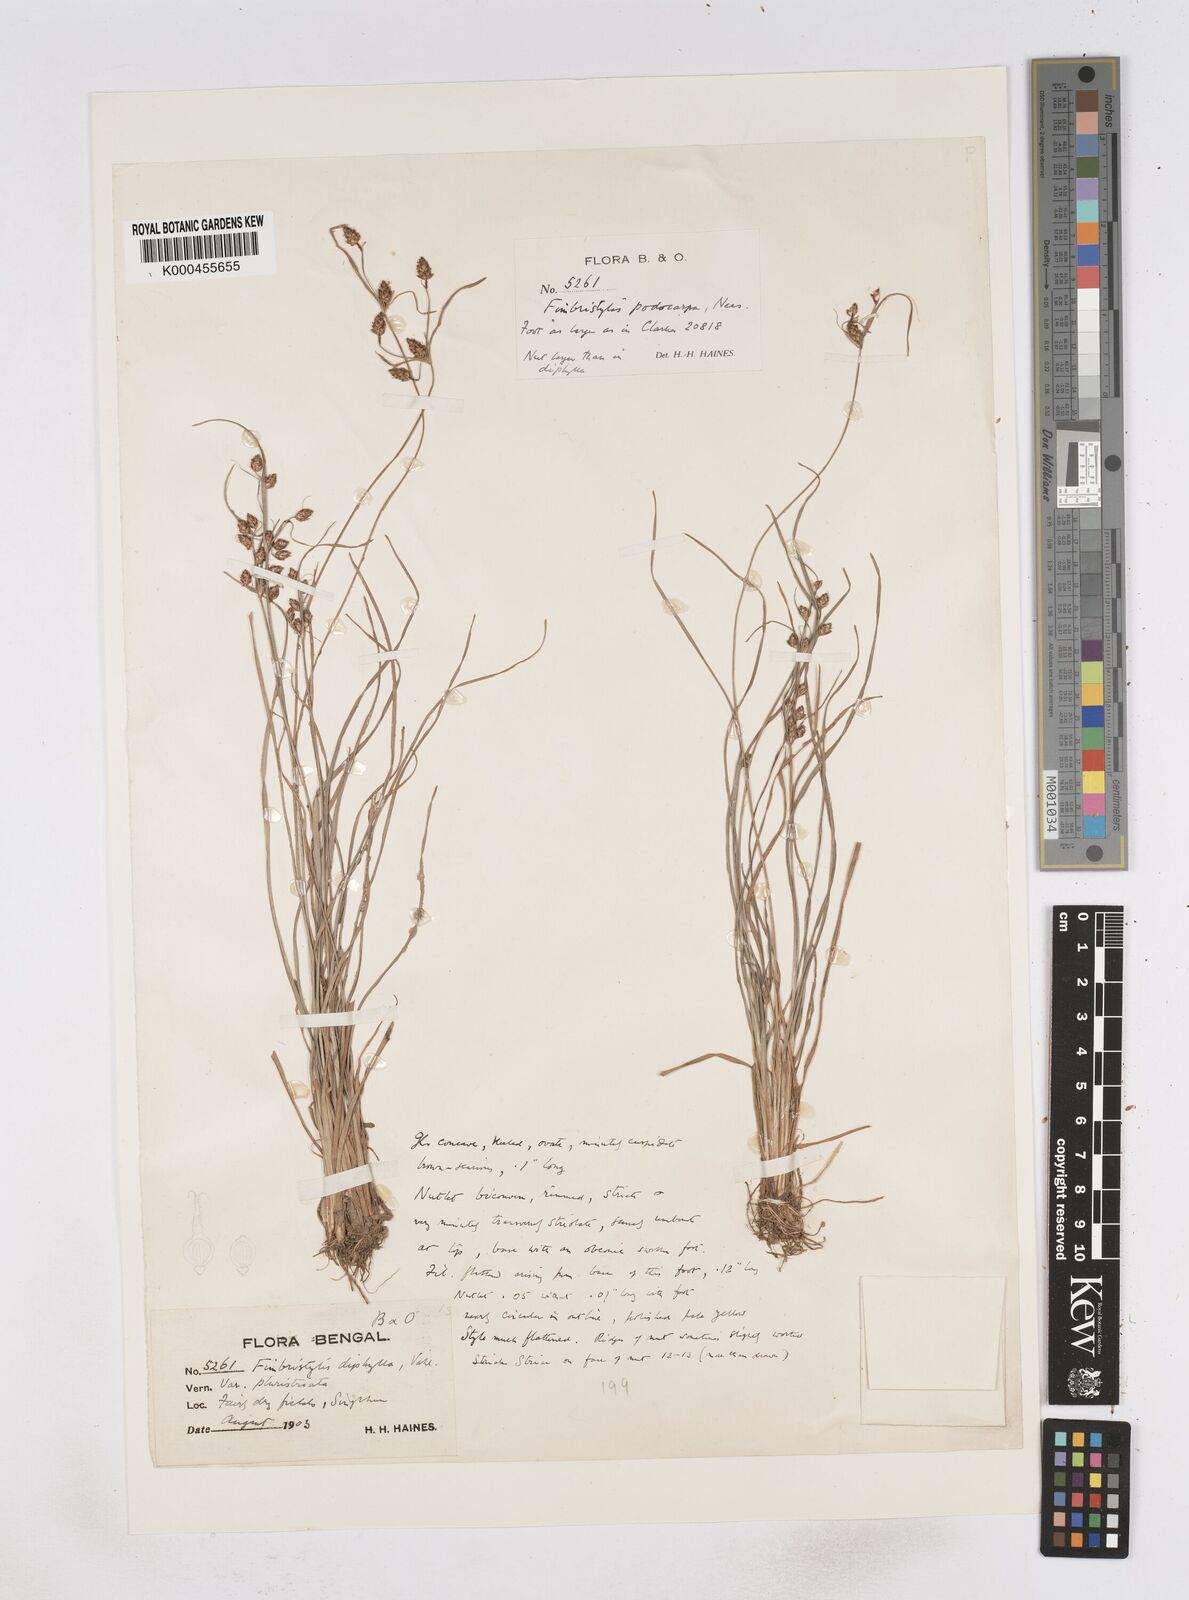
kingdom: Plantae
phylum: Tracheophyta
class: Liliopsida
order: Poales
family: Cyperaceae
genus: Fimbristylis
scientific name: Fimbristylis dichotoma
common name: Forked fimbry
